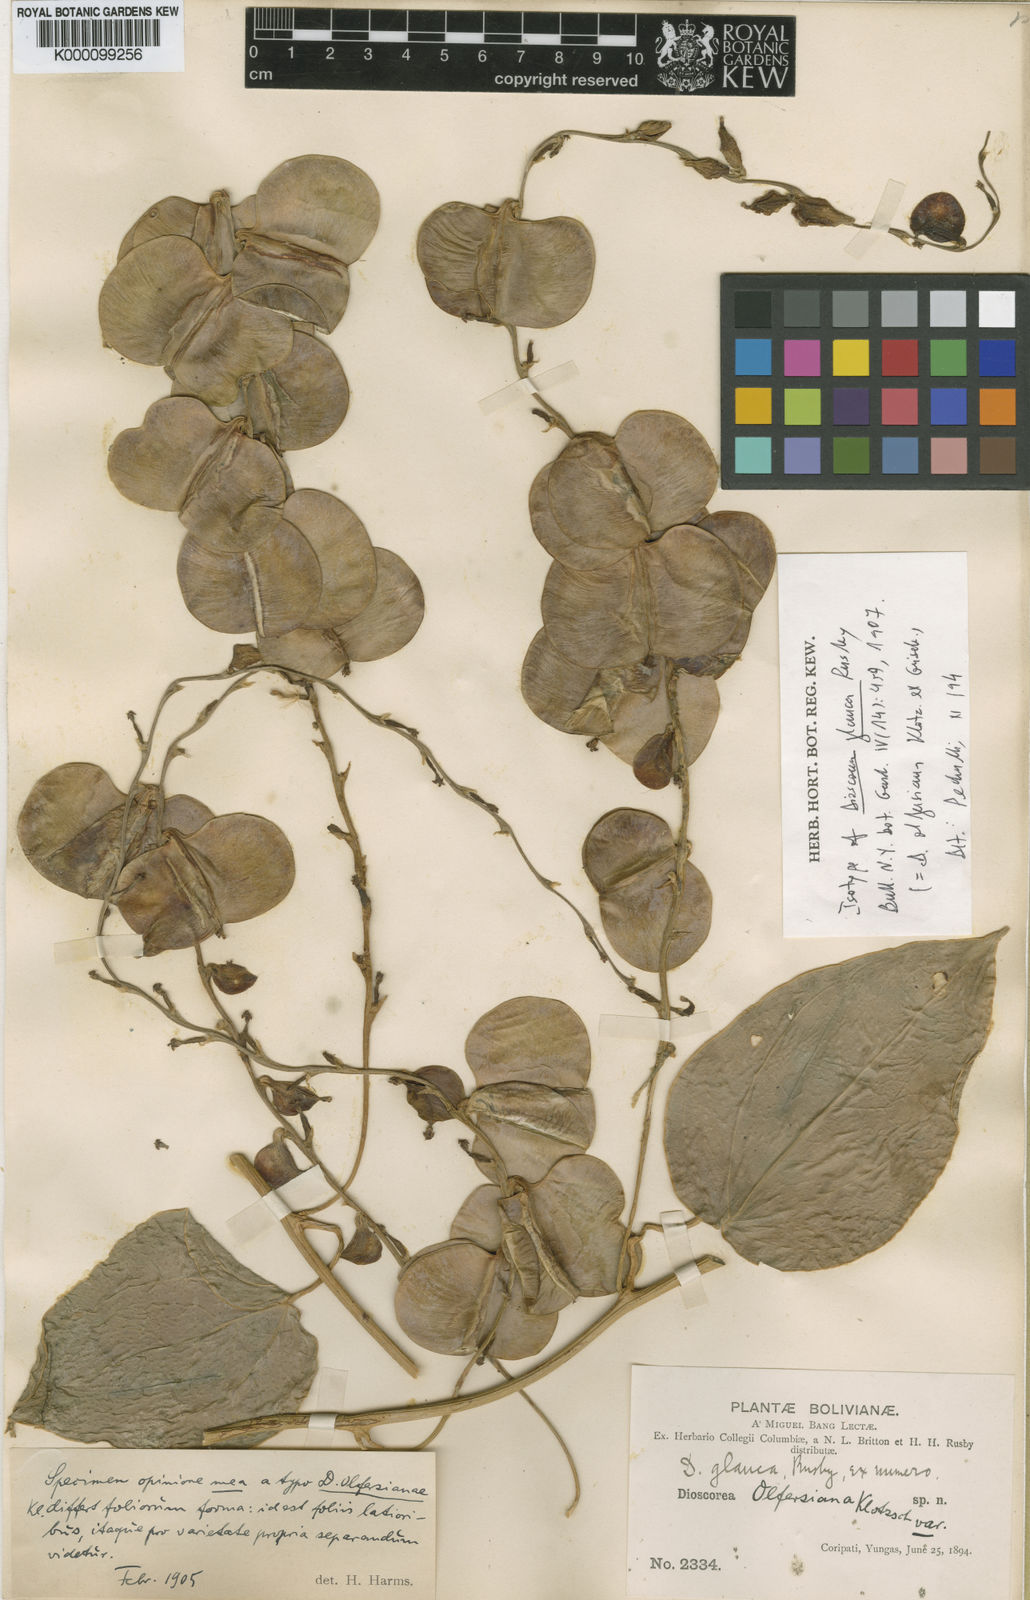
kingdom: Plantae
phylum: Tracheophyta
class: Liliopsida
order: Dioscoreales
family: Dioscoreaceae
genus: Dioscorea
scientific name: Dioscorea glauca
